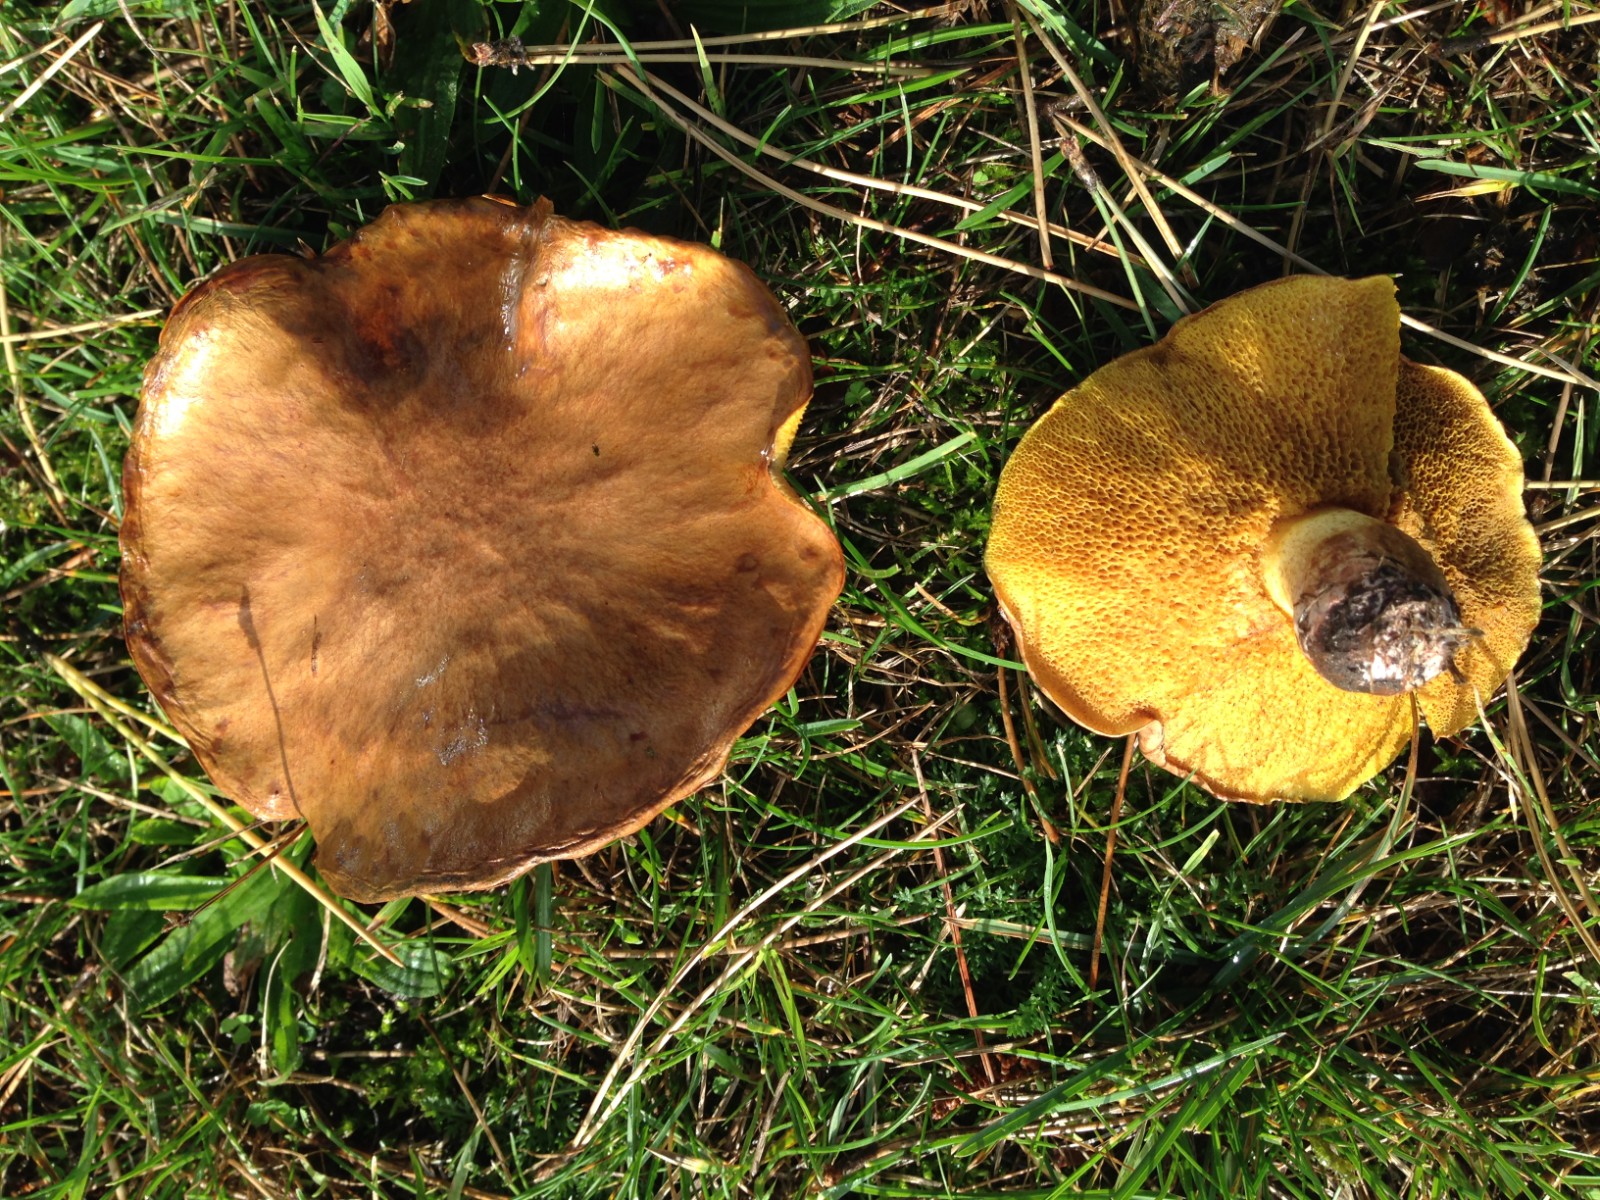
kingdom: Fungi
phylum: Basidiomycota
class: Agaricomycetes
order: Boletales
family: Suillaceae
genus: Suillus
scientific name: Suillus
